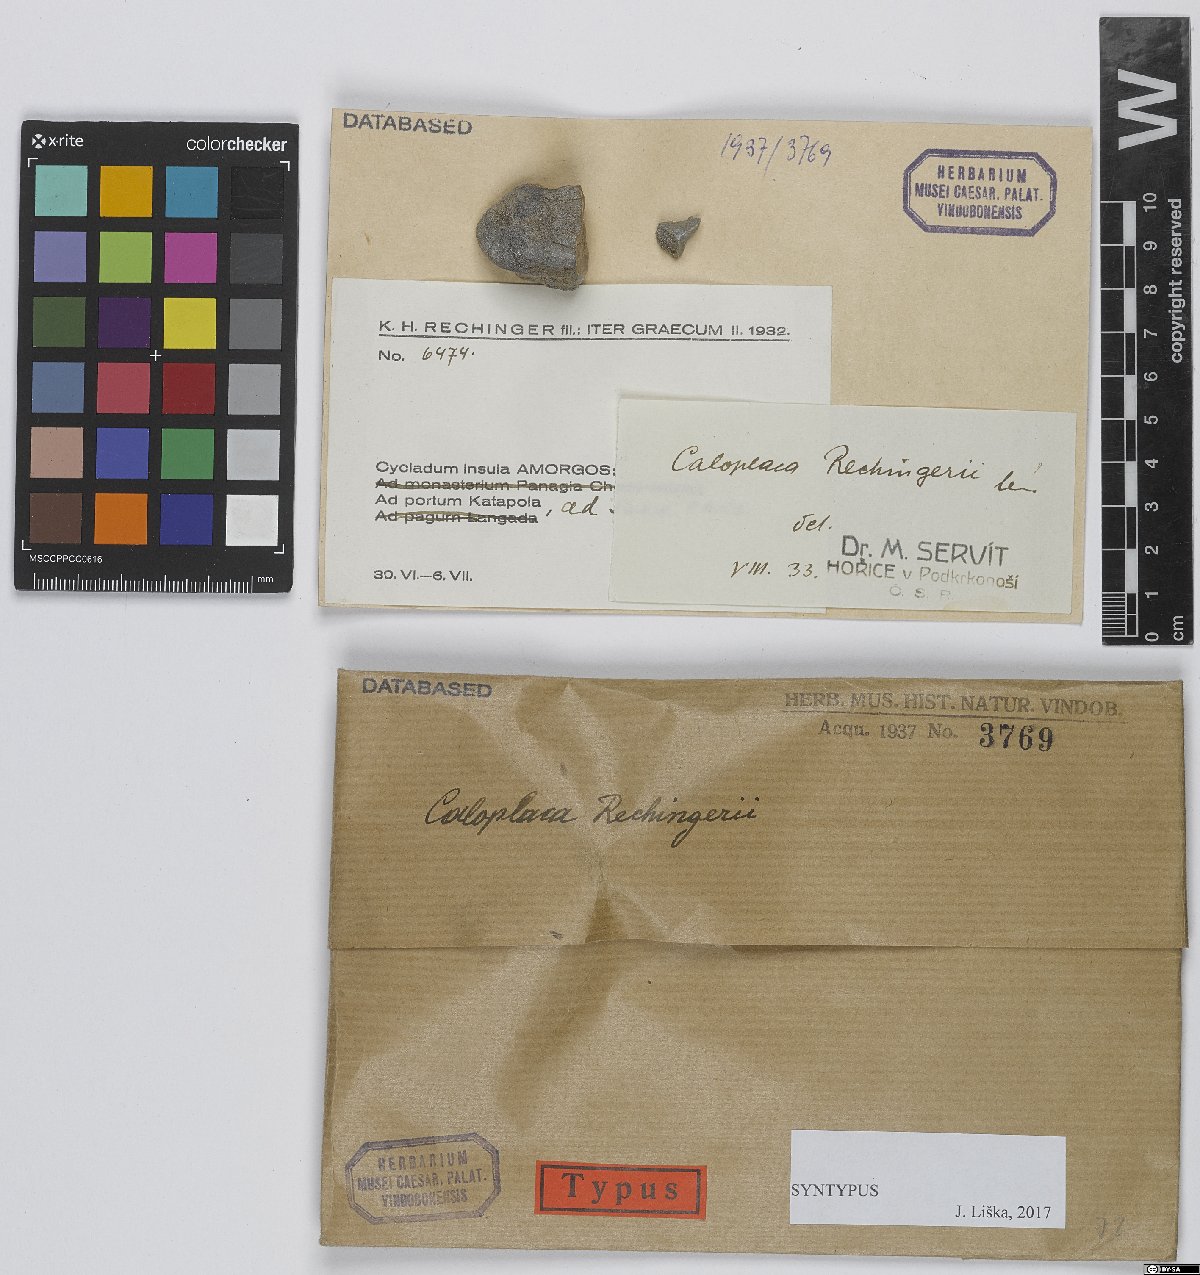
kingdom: Fungi
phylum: Ascomycota
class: Lecanoromycetes
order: Teloschistales
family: Teloschistaceae
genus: Caloplaca
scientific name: Caloplaca
